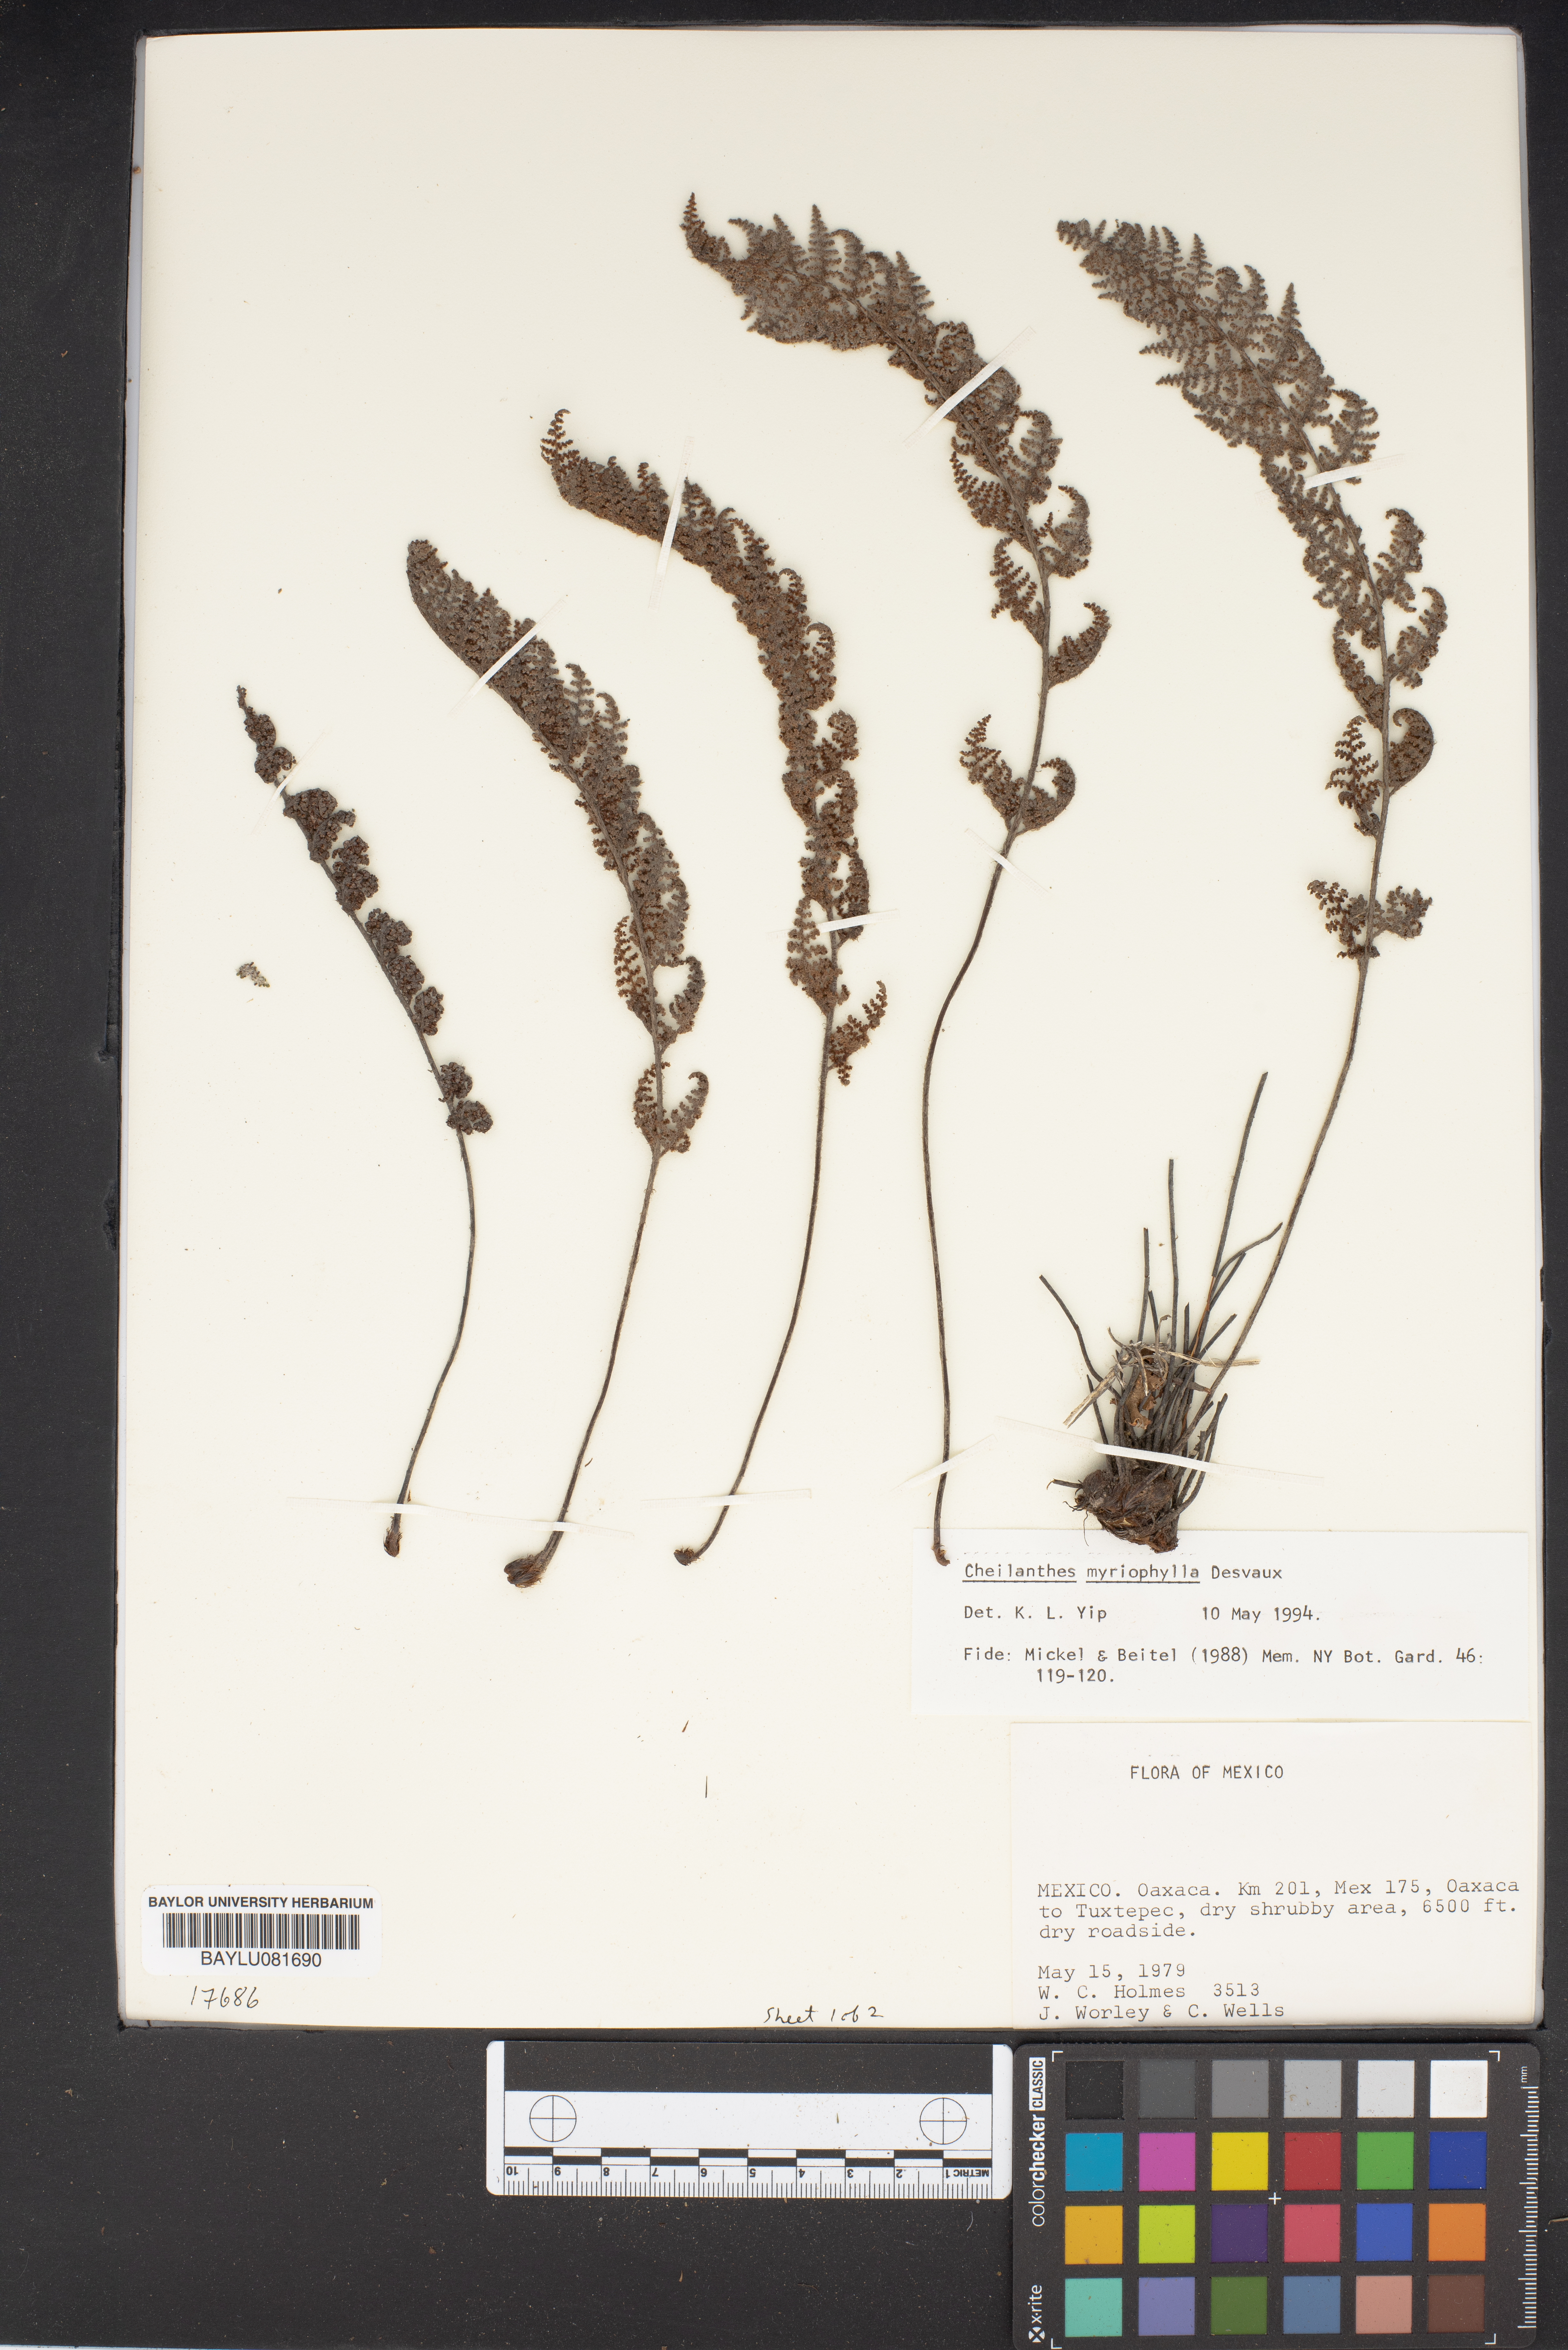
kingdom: Plantae
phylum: Tracheophyta
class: Polypodiopsida
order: Polypodiales
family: Pteridaceae
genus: Myriopteris
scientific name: Myriopteris myriophylla
